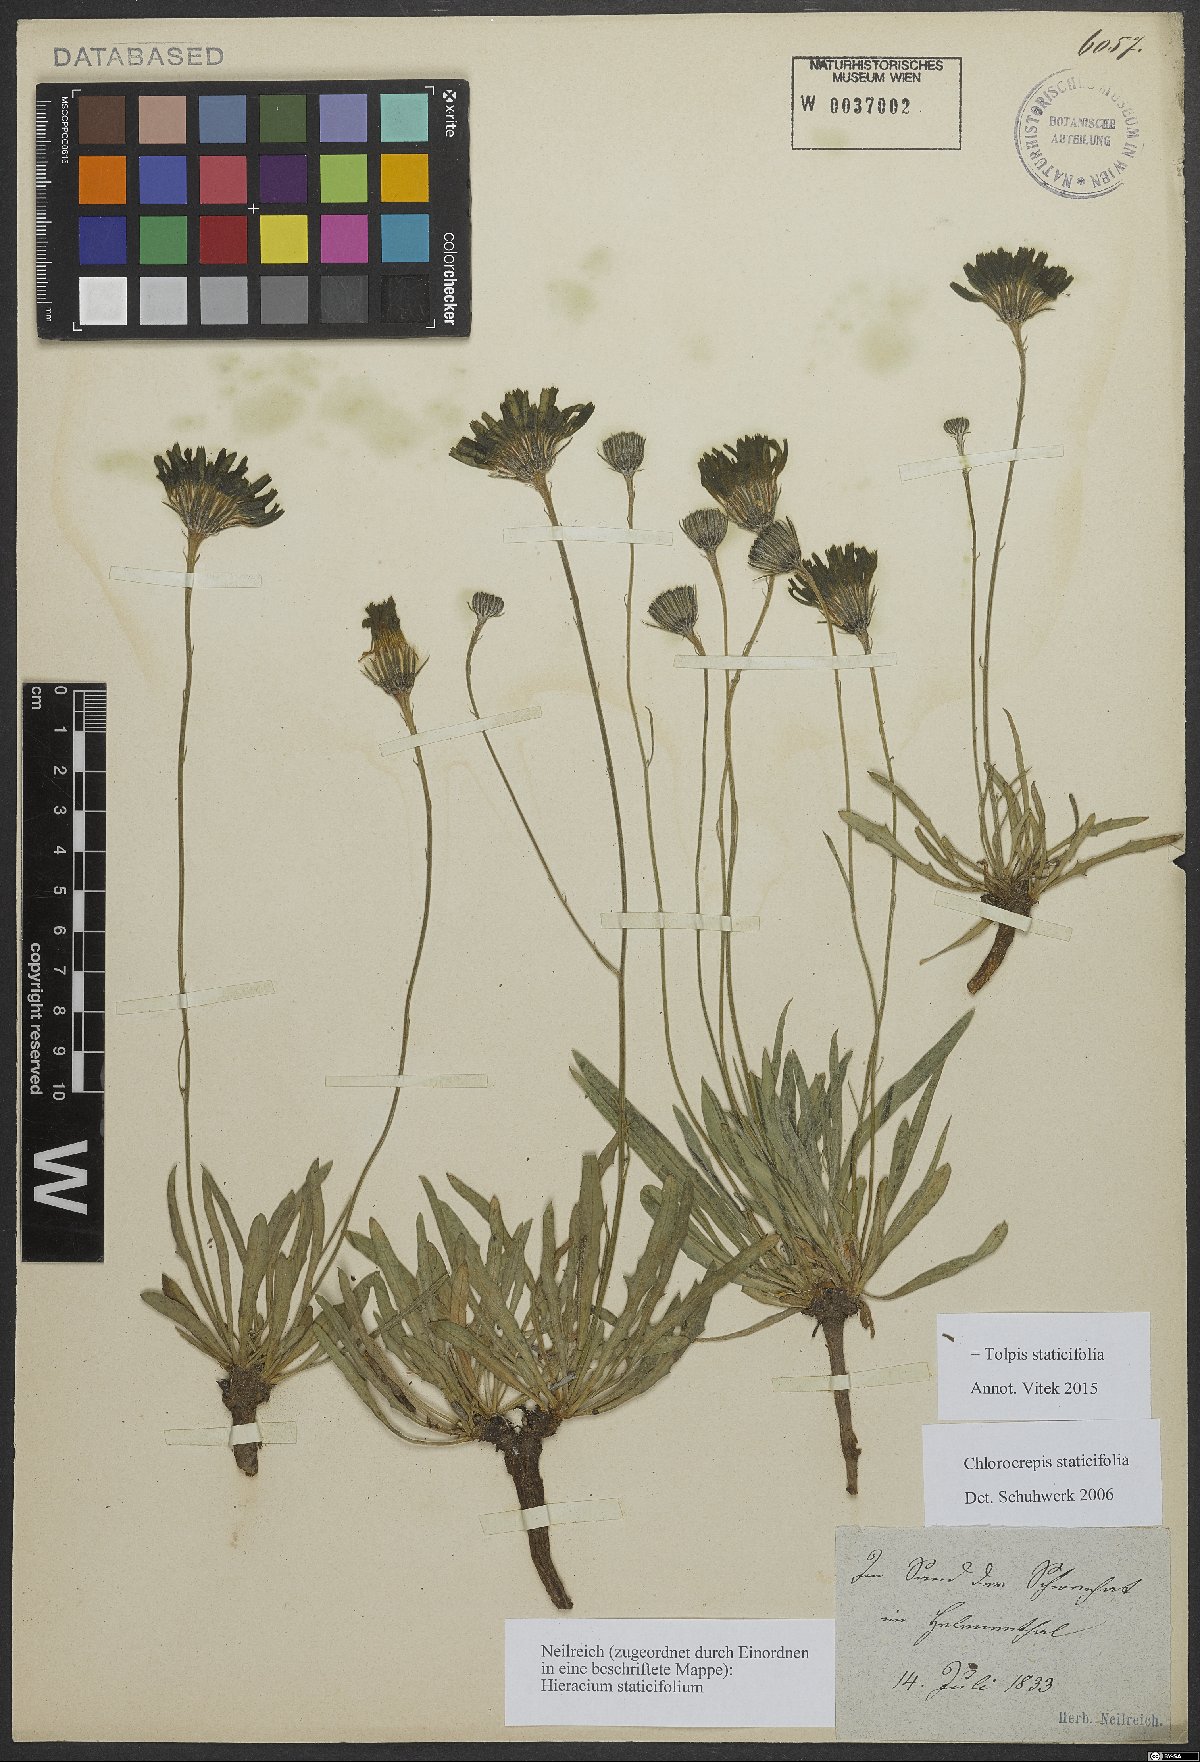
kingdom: Plantae
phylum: Tracheophyta
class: Magnoliopsida
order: Asterales
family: Asteraceae
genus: Tolpis
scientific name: Tolpis staticifolia
